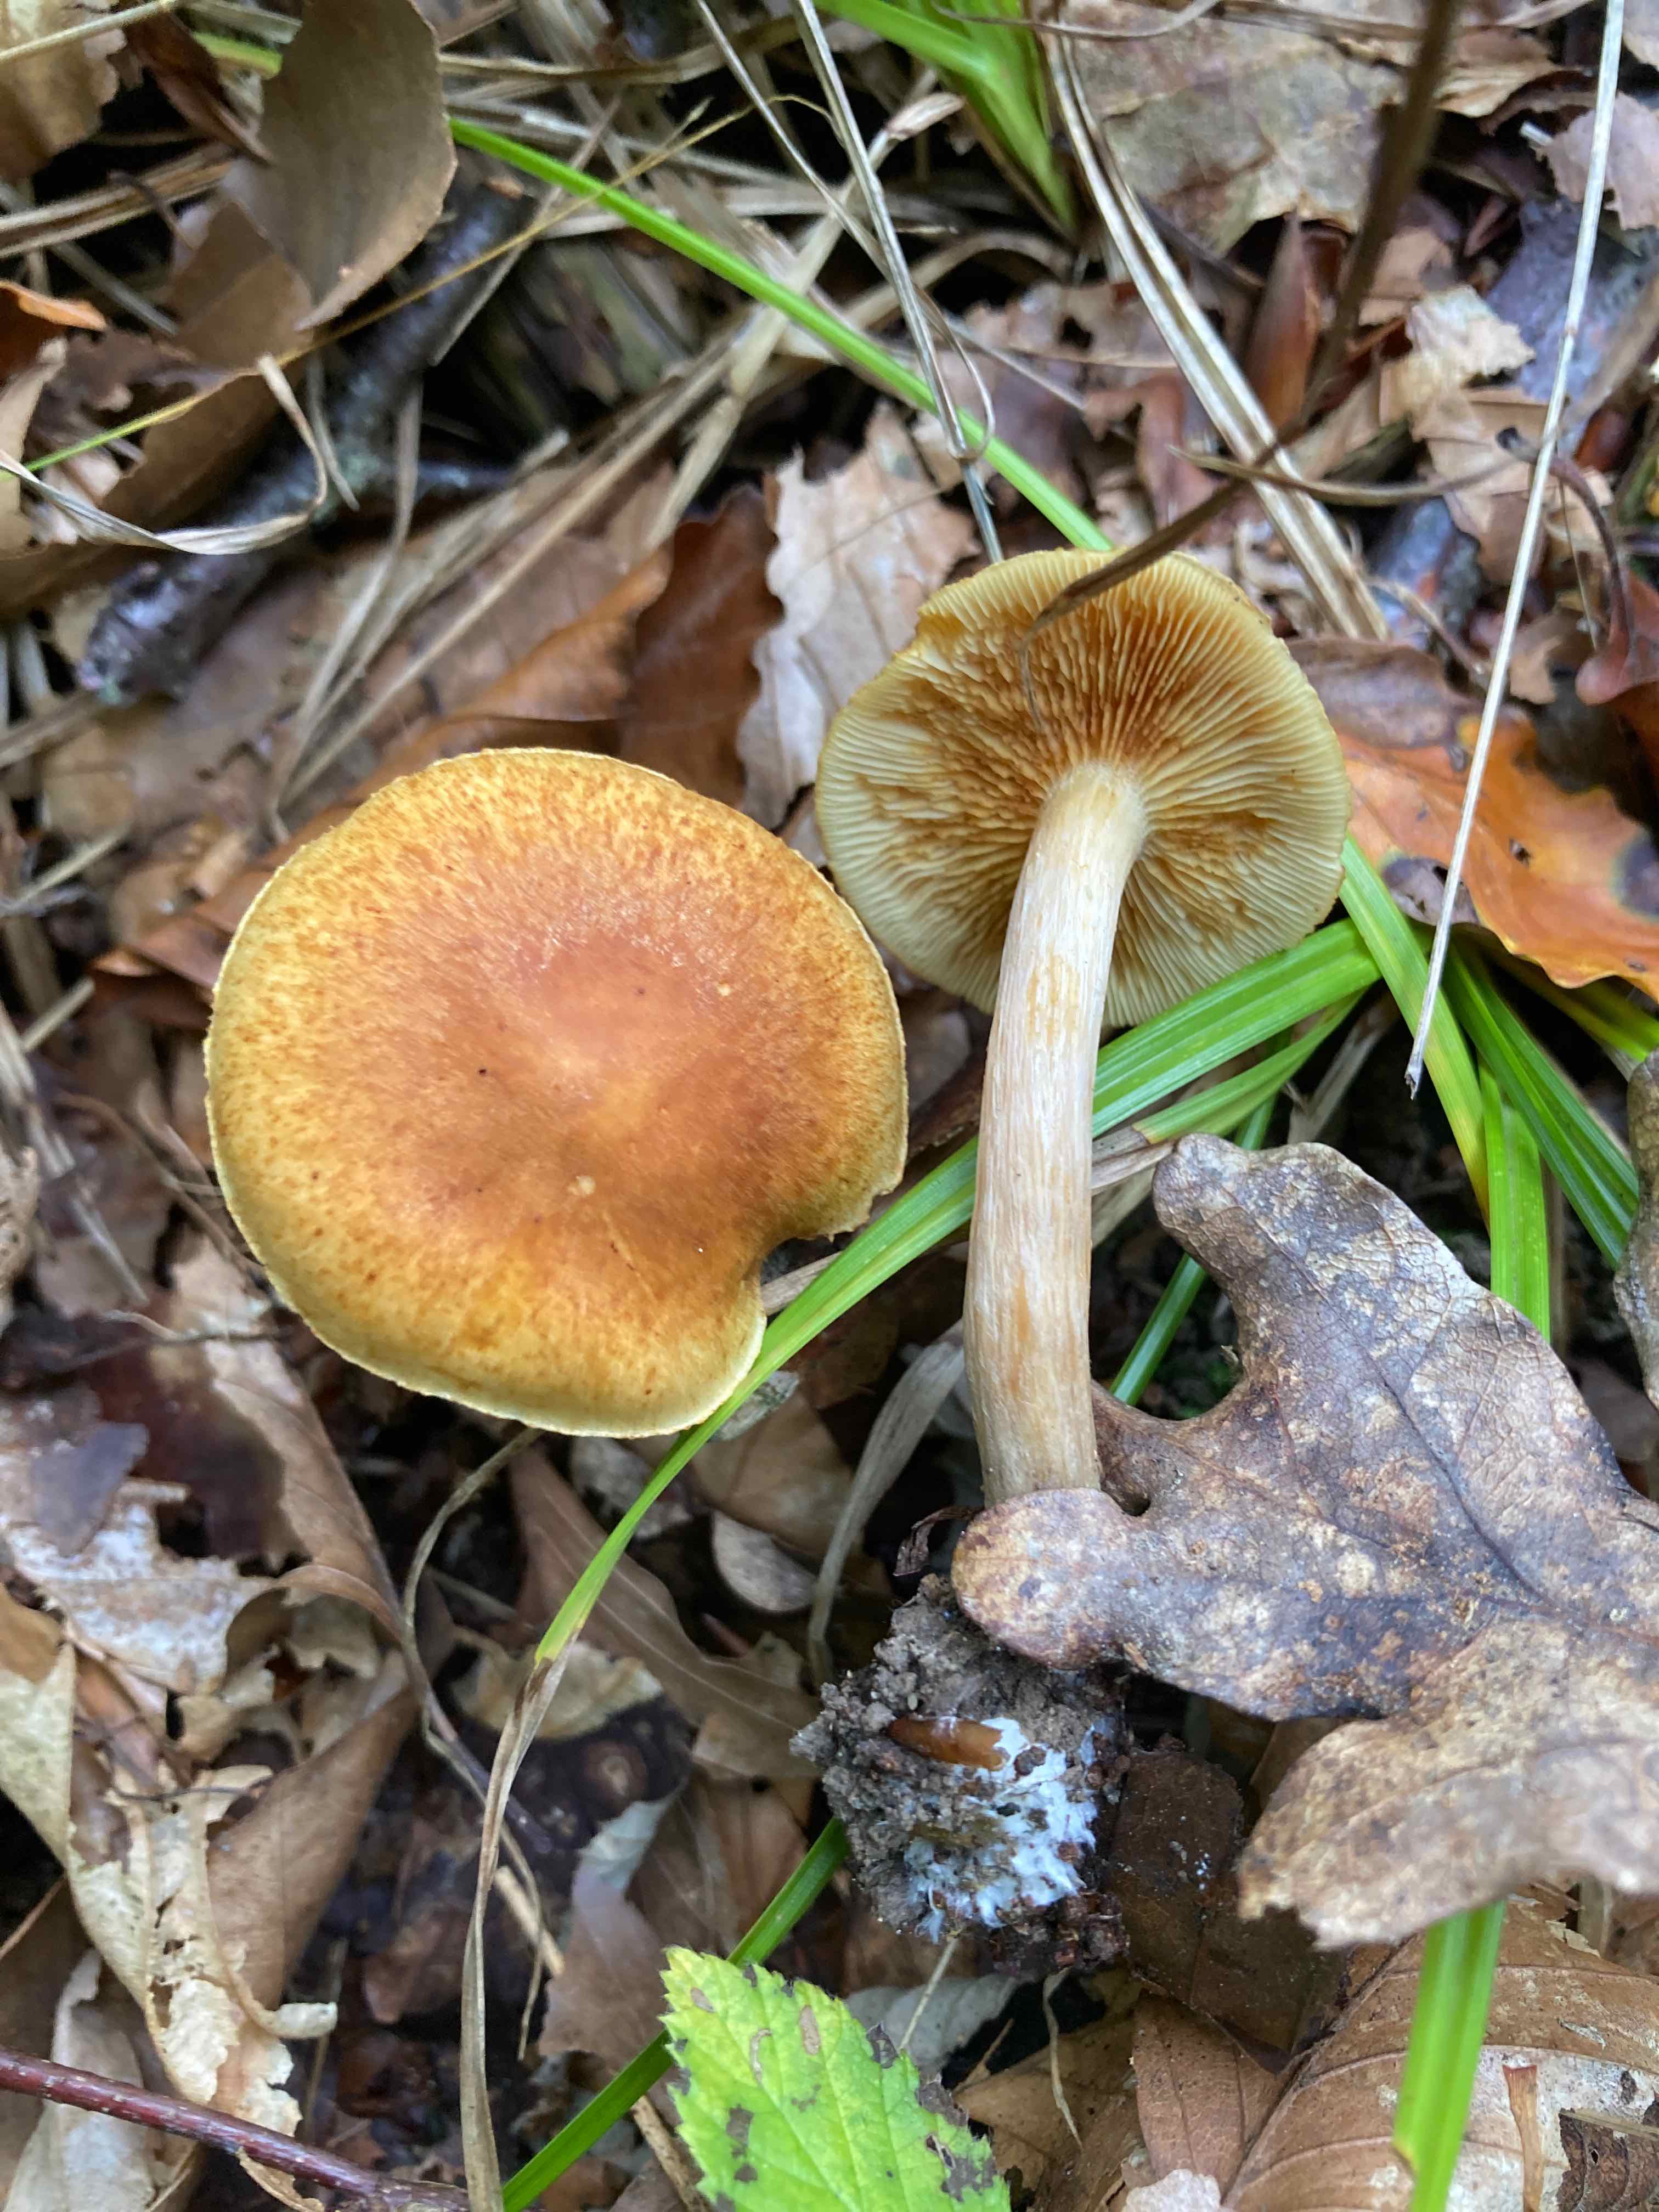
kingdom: Fungi
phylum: Basidiomycota
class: Agaricomycetes
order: Agaricales
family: Hymenogastraceae
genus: Gymnopilus
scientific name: Gymnopilus penetrans
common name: plettet flammehat
